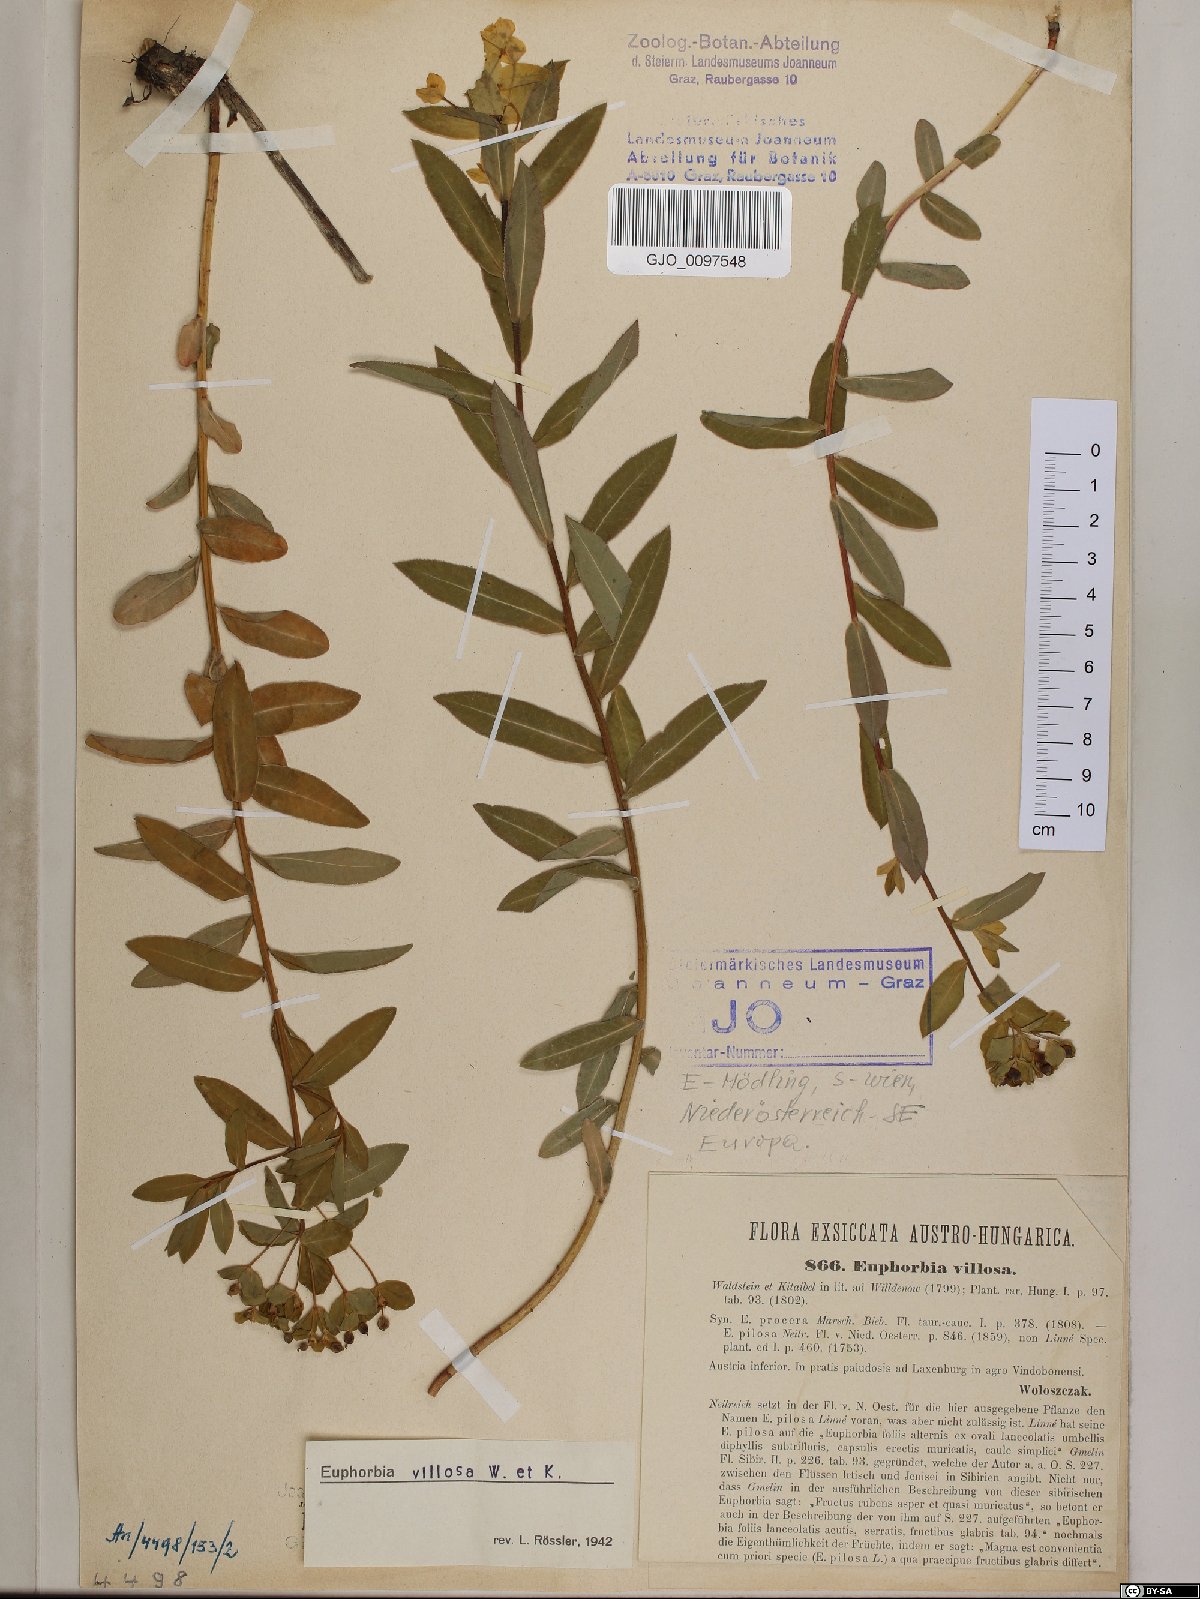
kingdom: Plantae
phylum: Tracheophyta
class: Magnoliopsida
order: Malpighiales
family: Euphorbiaceae
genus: Euphorbia
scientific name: Euphorbia illirica
